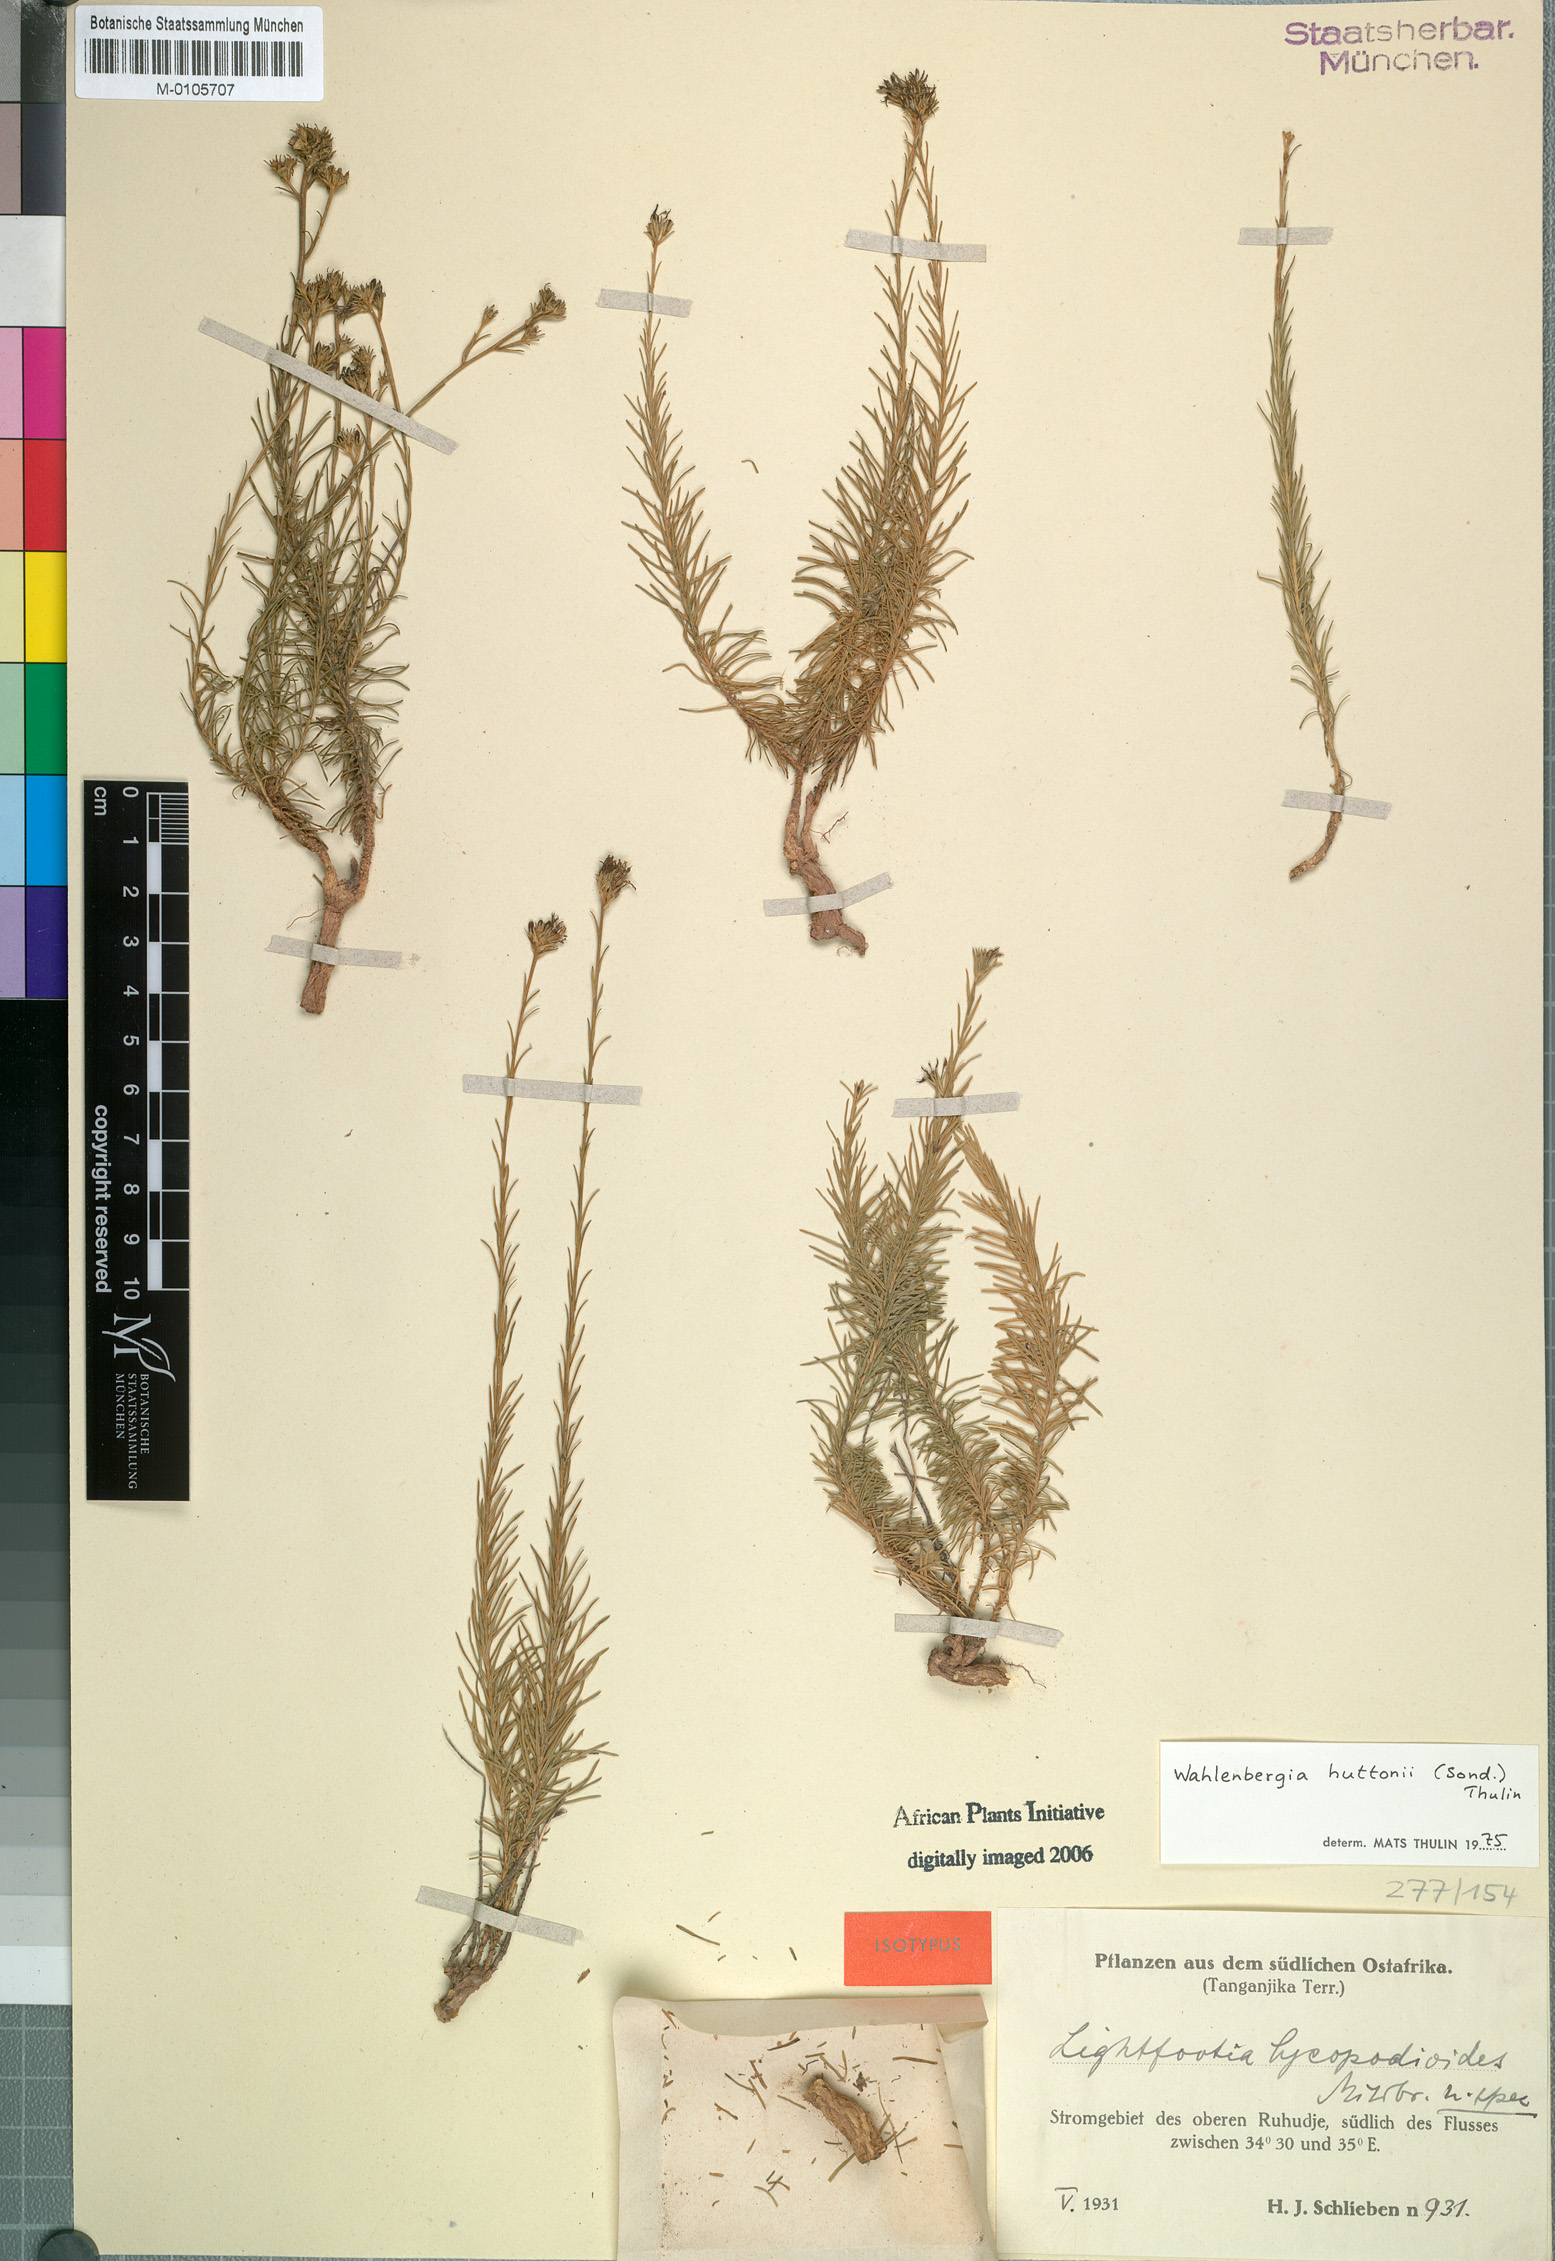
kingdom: Plantae
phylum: Tracheophyta
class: Magnoliopsida
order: Asterales
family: Campanulaceae
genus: Wahlenbergia
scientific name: Wahlenbergia huttonii
